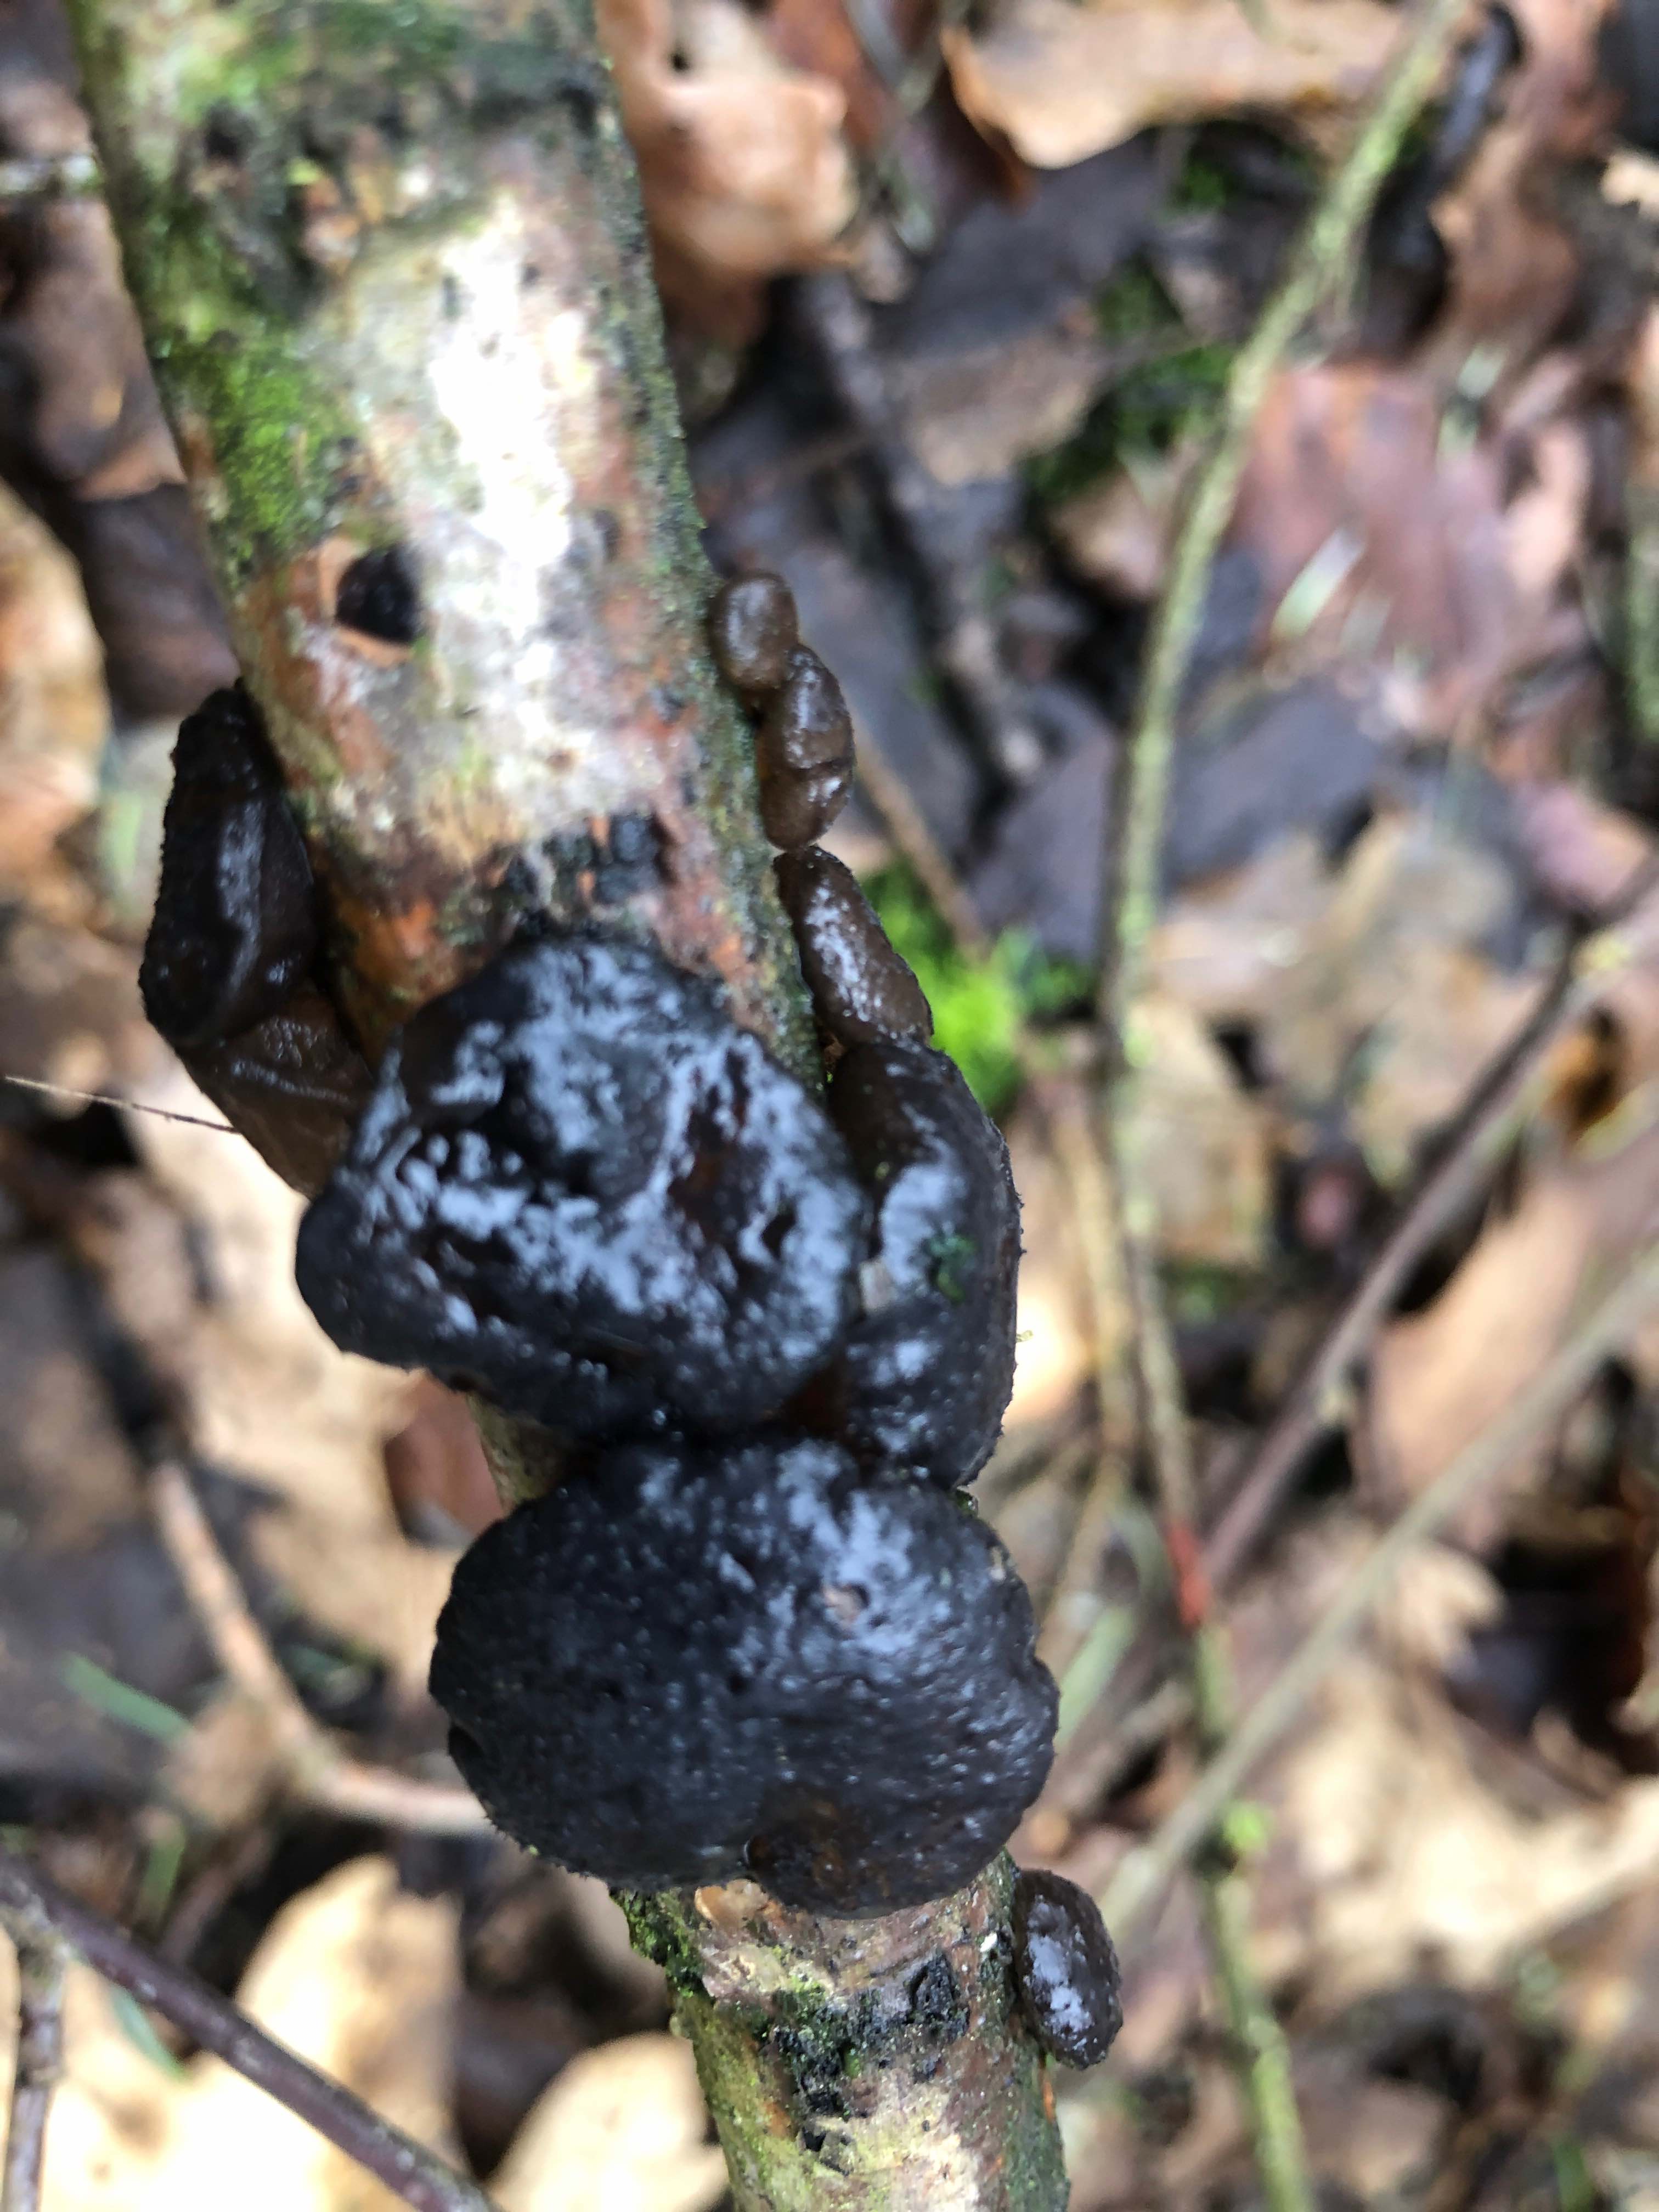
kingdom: Fungi
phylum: Basidiomycota
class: Agaricomycetes
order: Auriculariales
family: Auriculariaceae
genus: Exidia
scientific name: Exidia glandulosa
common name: ege-bævretop
